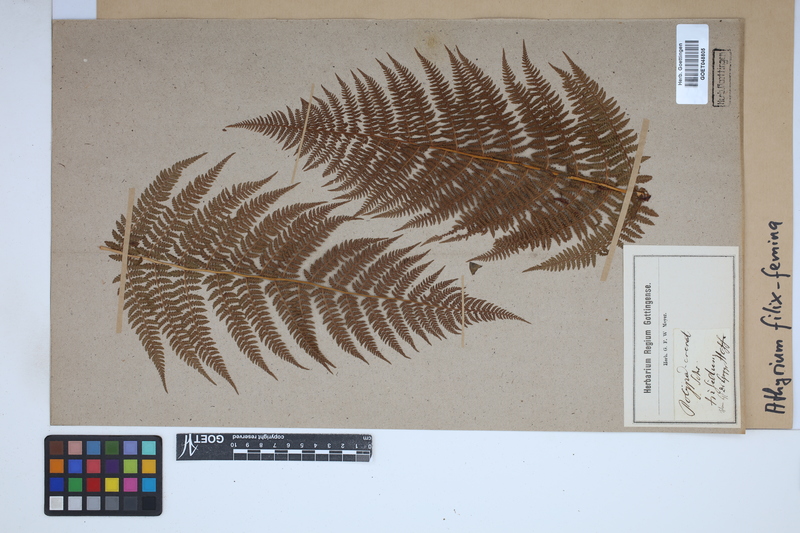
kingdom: Plantae
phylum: Tracheophyta
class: Polypodiopsida
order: Polypodiales
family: Athyriaceae
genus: Athyrium
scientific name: Athyrium filix-femina
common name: Lady fern
